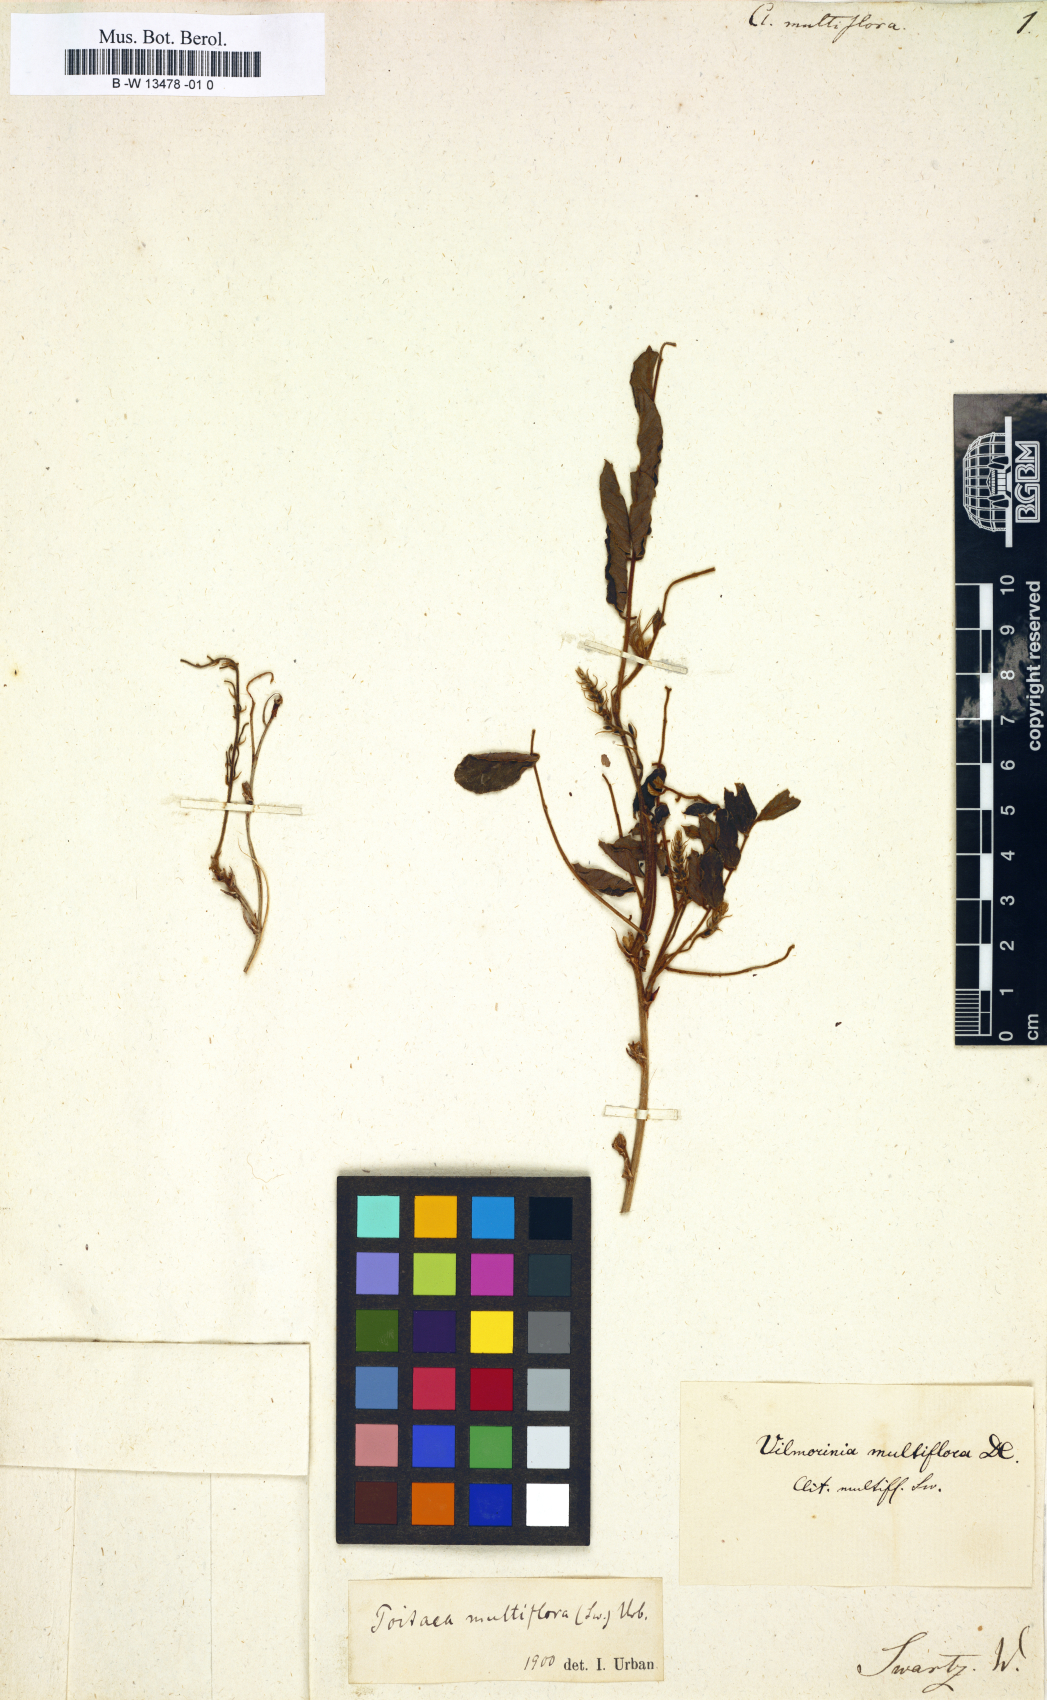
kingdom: Plantae
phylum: Tracheophyta
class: Magnoliopsida
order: Fabales
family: Fabaceae
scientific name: Fabaceae
